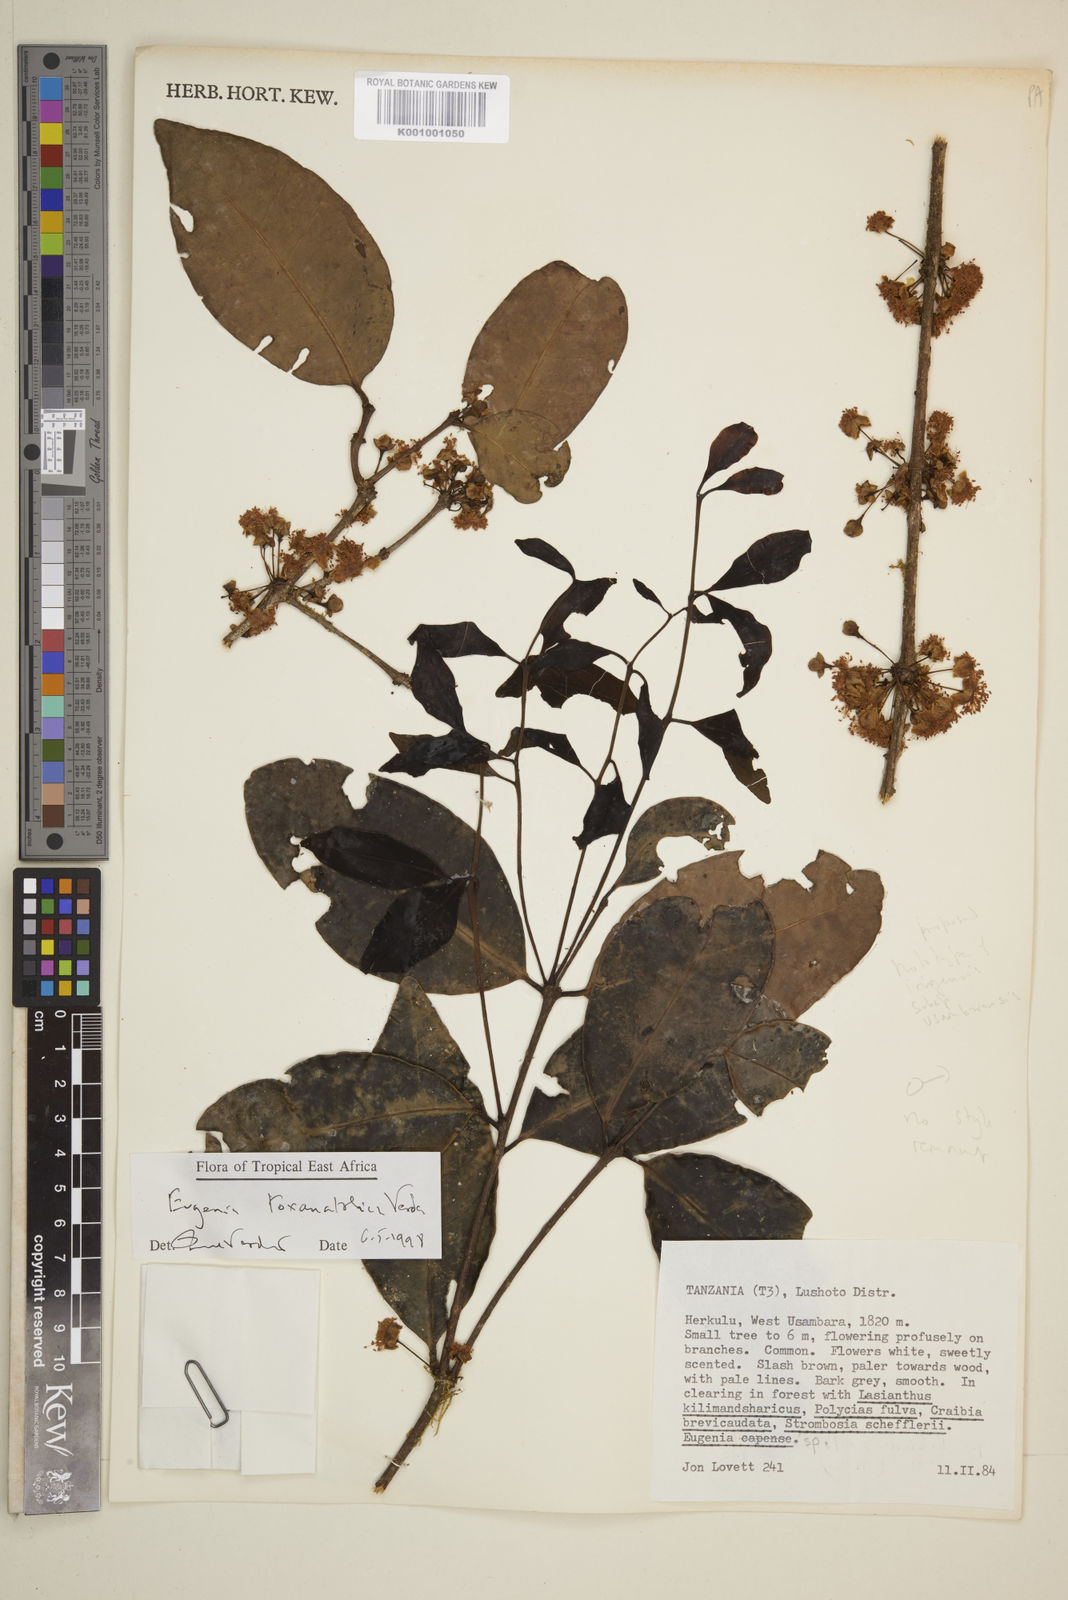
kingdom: Plantae
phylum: Tracheophyta
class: Magnoliopsida
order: Myrtales
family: Myrtaceae
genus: Eugenia
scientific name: Eugenia toxanatolica
